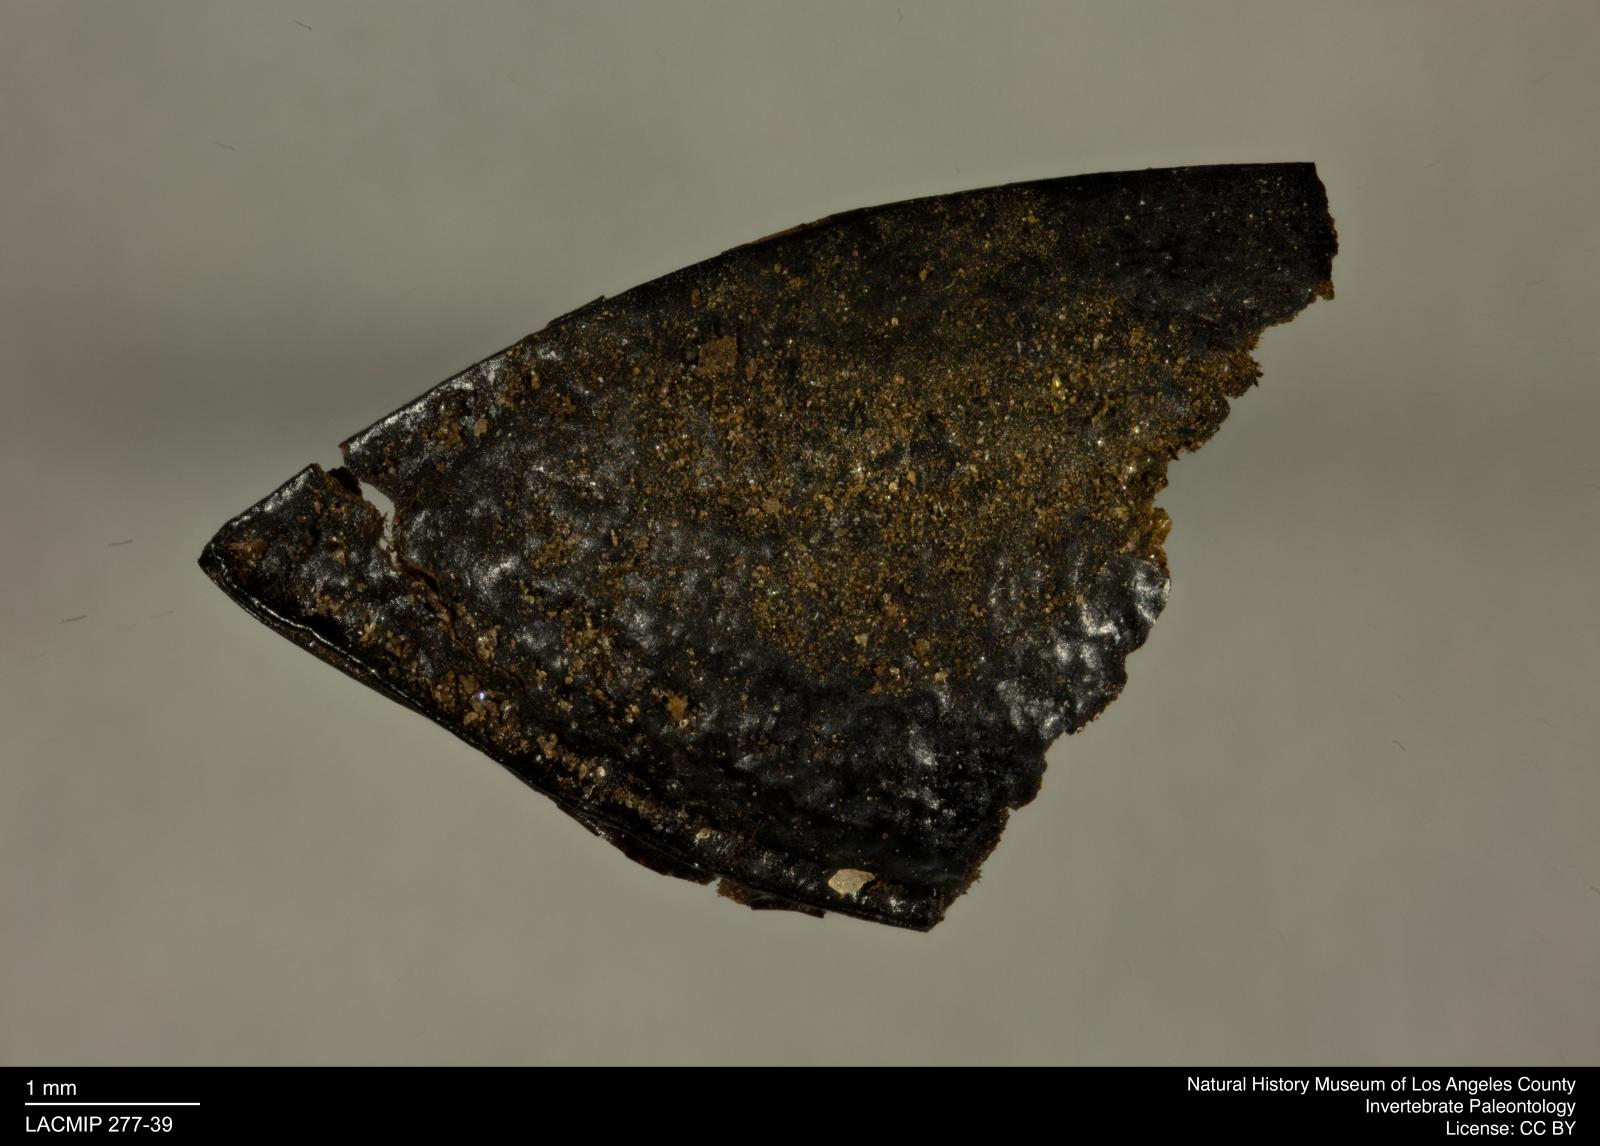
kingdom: Animalia
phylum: Arthropoda
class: Insecta
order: Coleoptera
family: Tenebrionidae
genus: Coniontis
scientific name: Coniontis abdominalis
